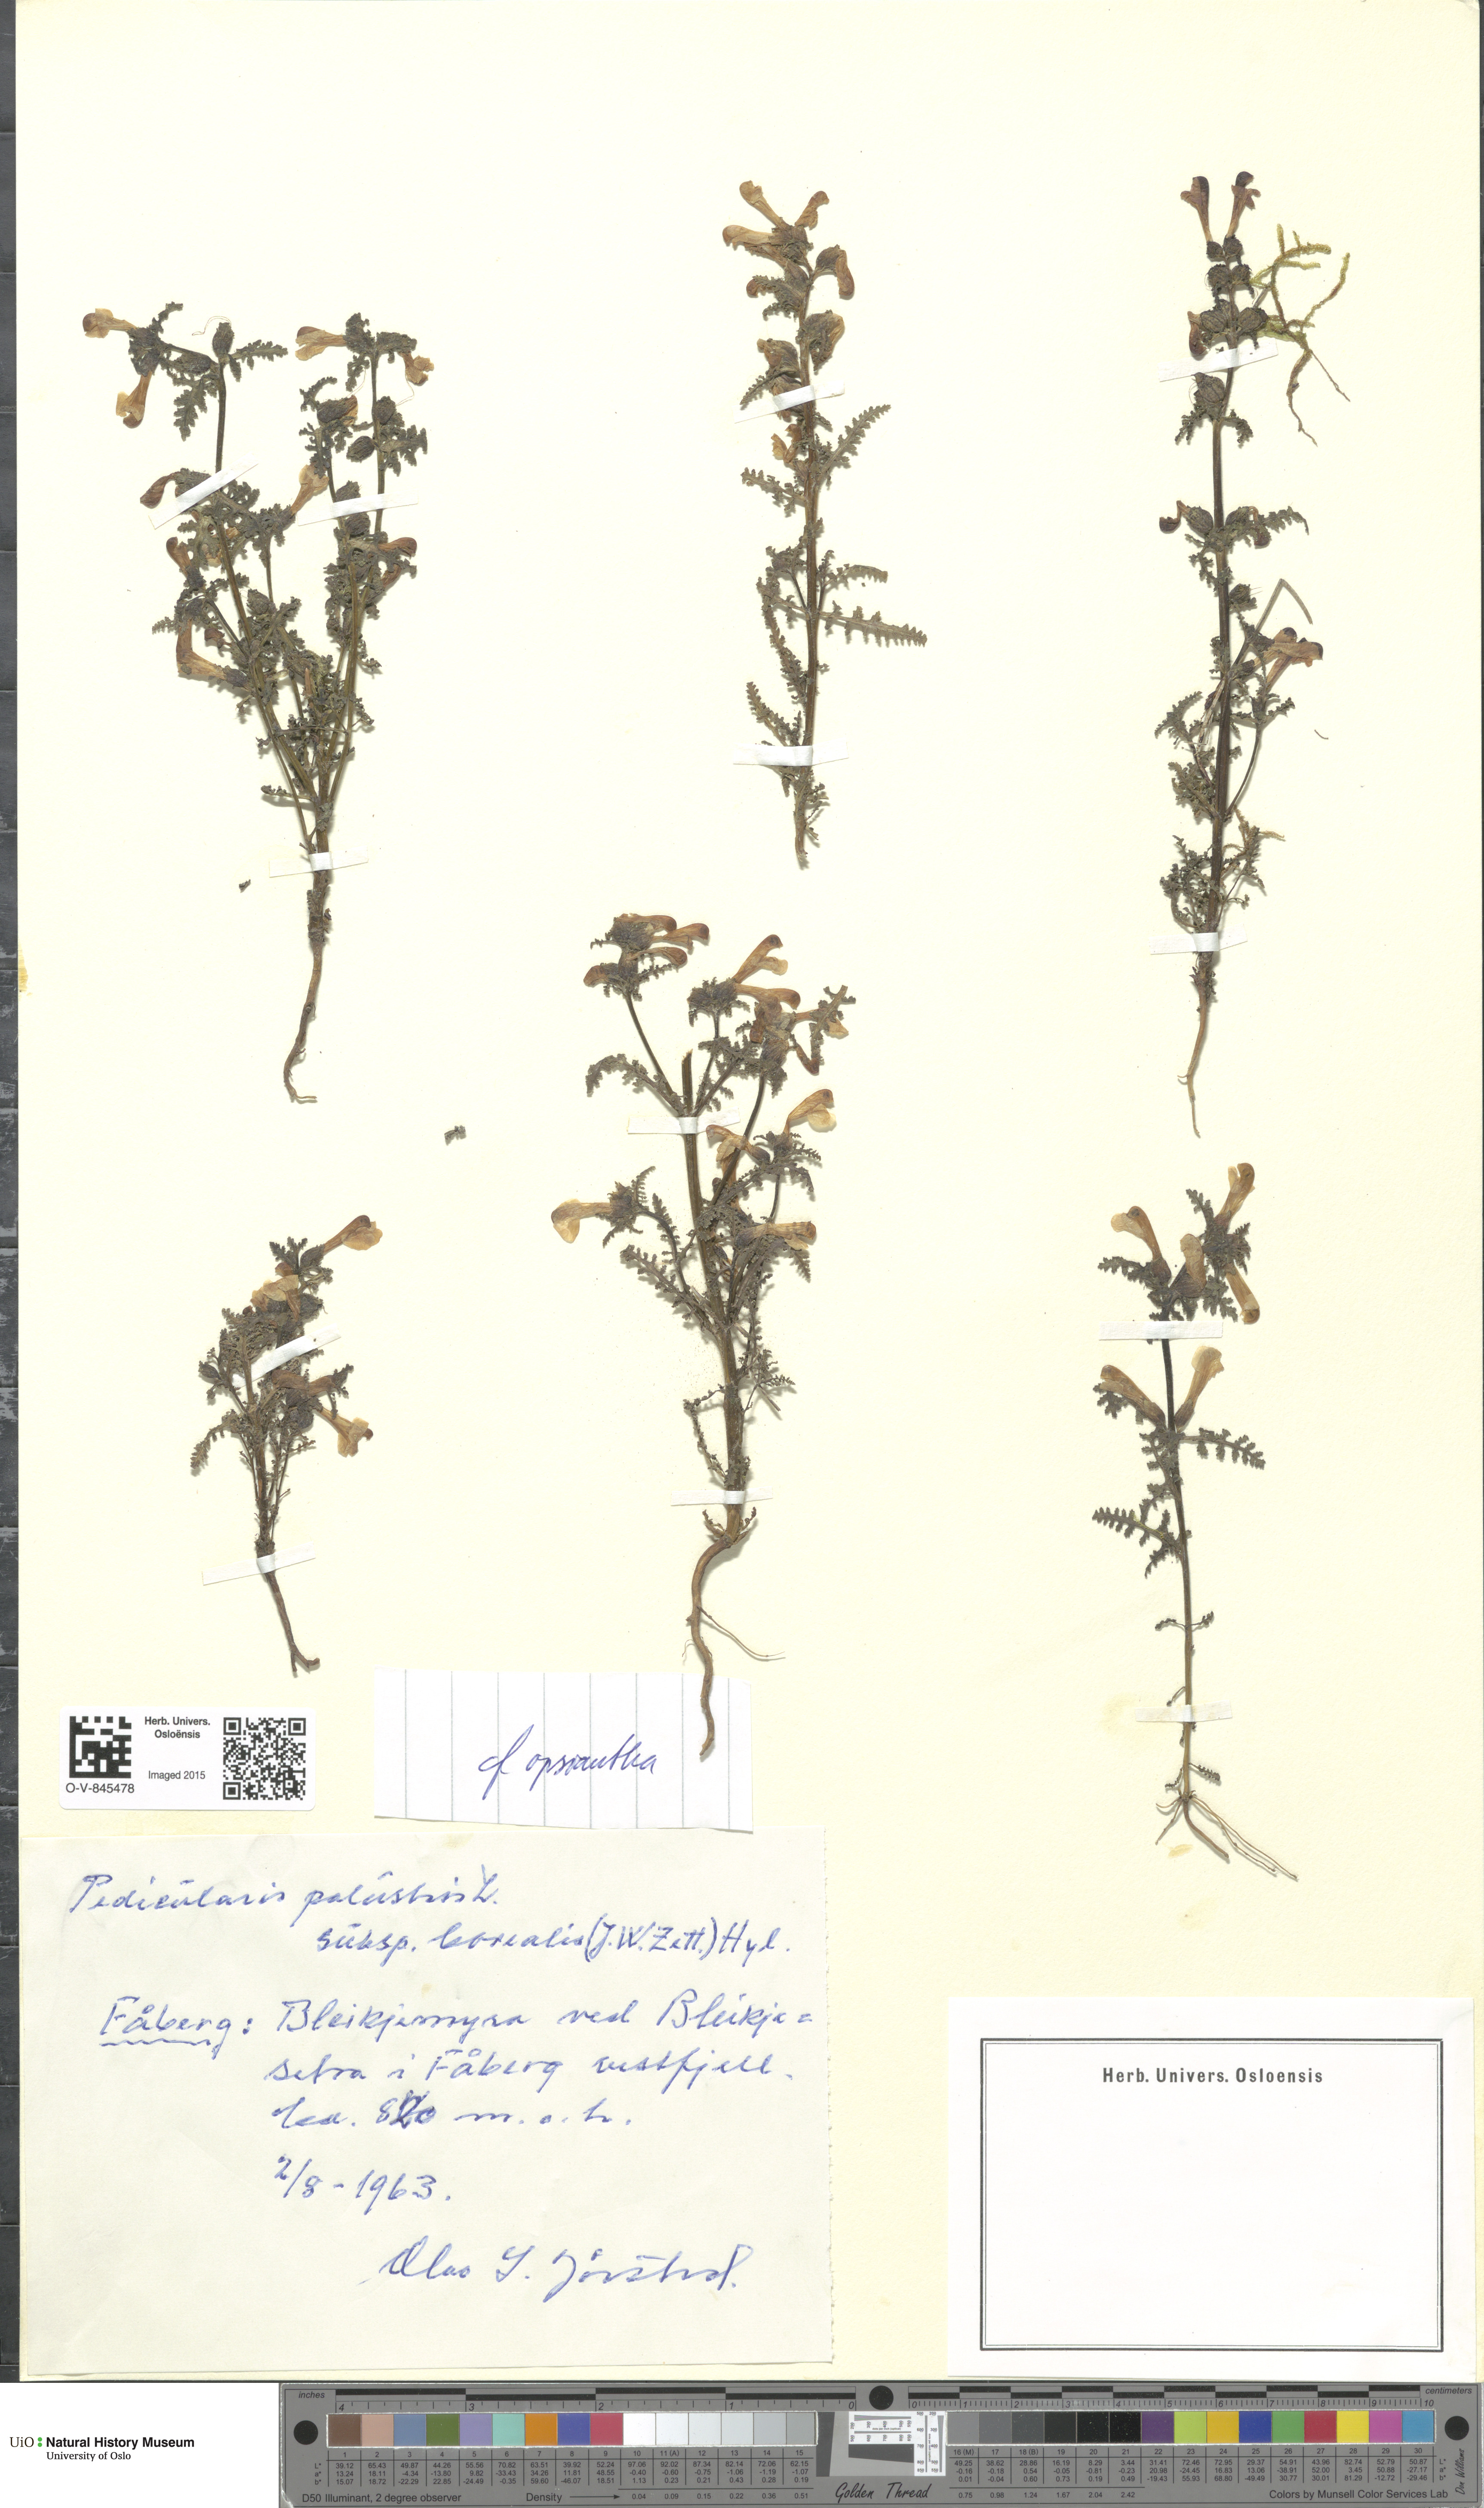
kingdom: Plantae
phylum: Tracheophyta
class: Magnoliopsida
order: Lamiales
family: Orobanchaceae
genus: Pedicularis
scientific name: Pedicularis palustris
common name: Marsh lousewort
